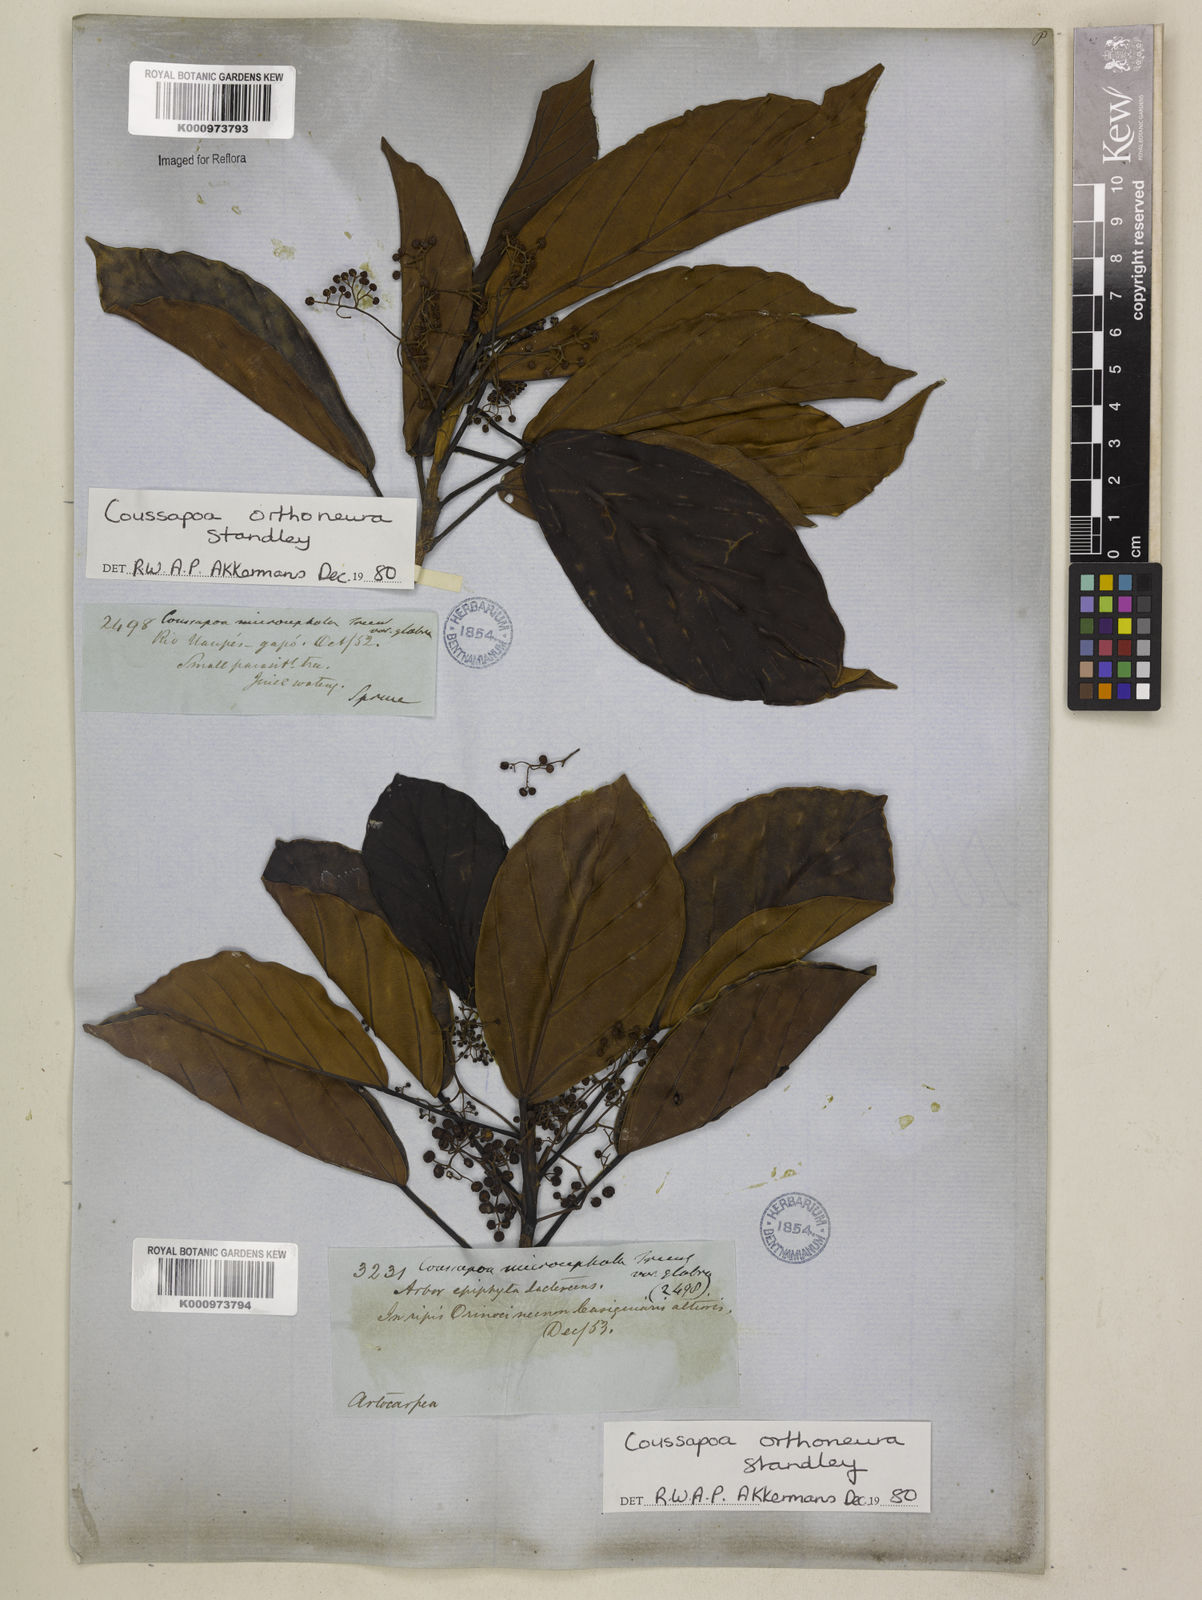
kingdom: Plantae
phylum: Tracheophyta
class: Magnoliopsida
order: Rosales
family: Urticaceae
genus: Coussapoa
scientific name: Coussapoa orthoneura
